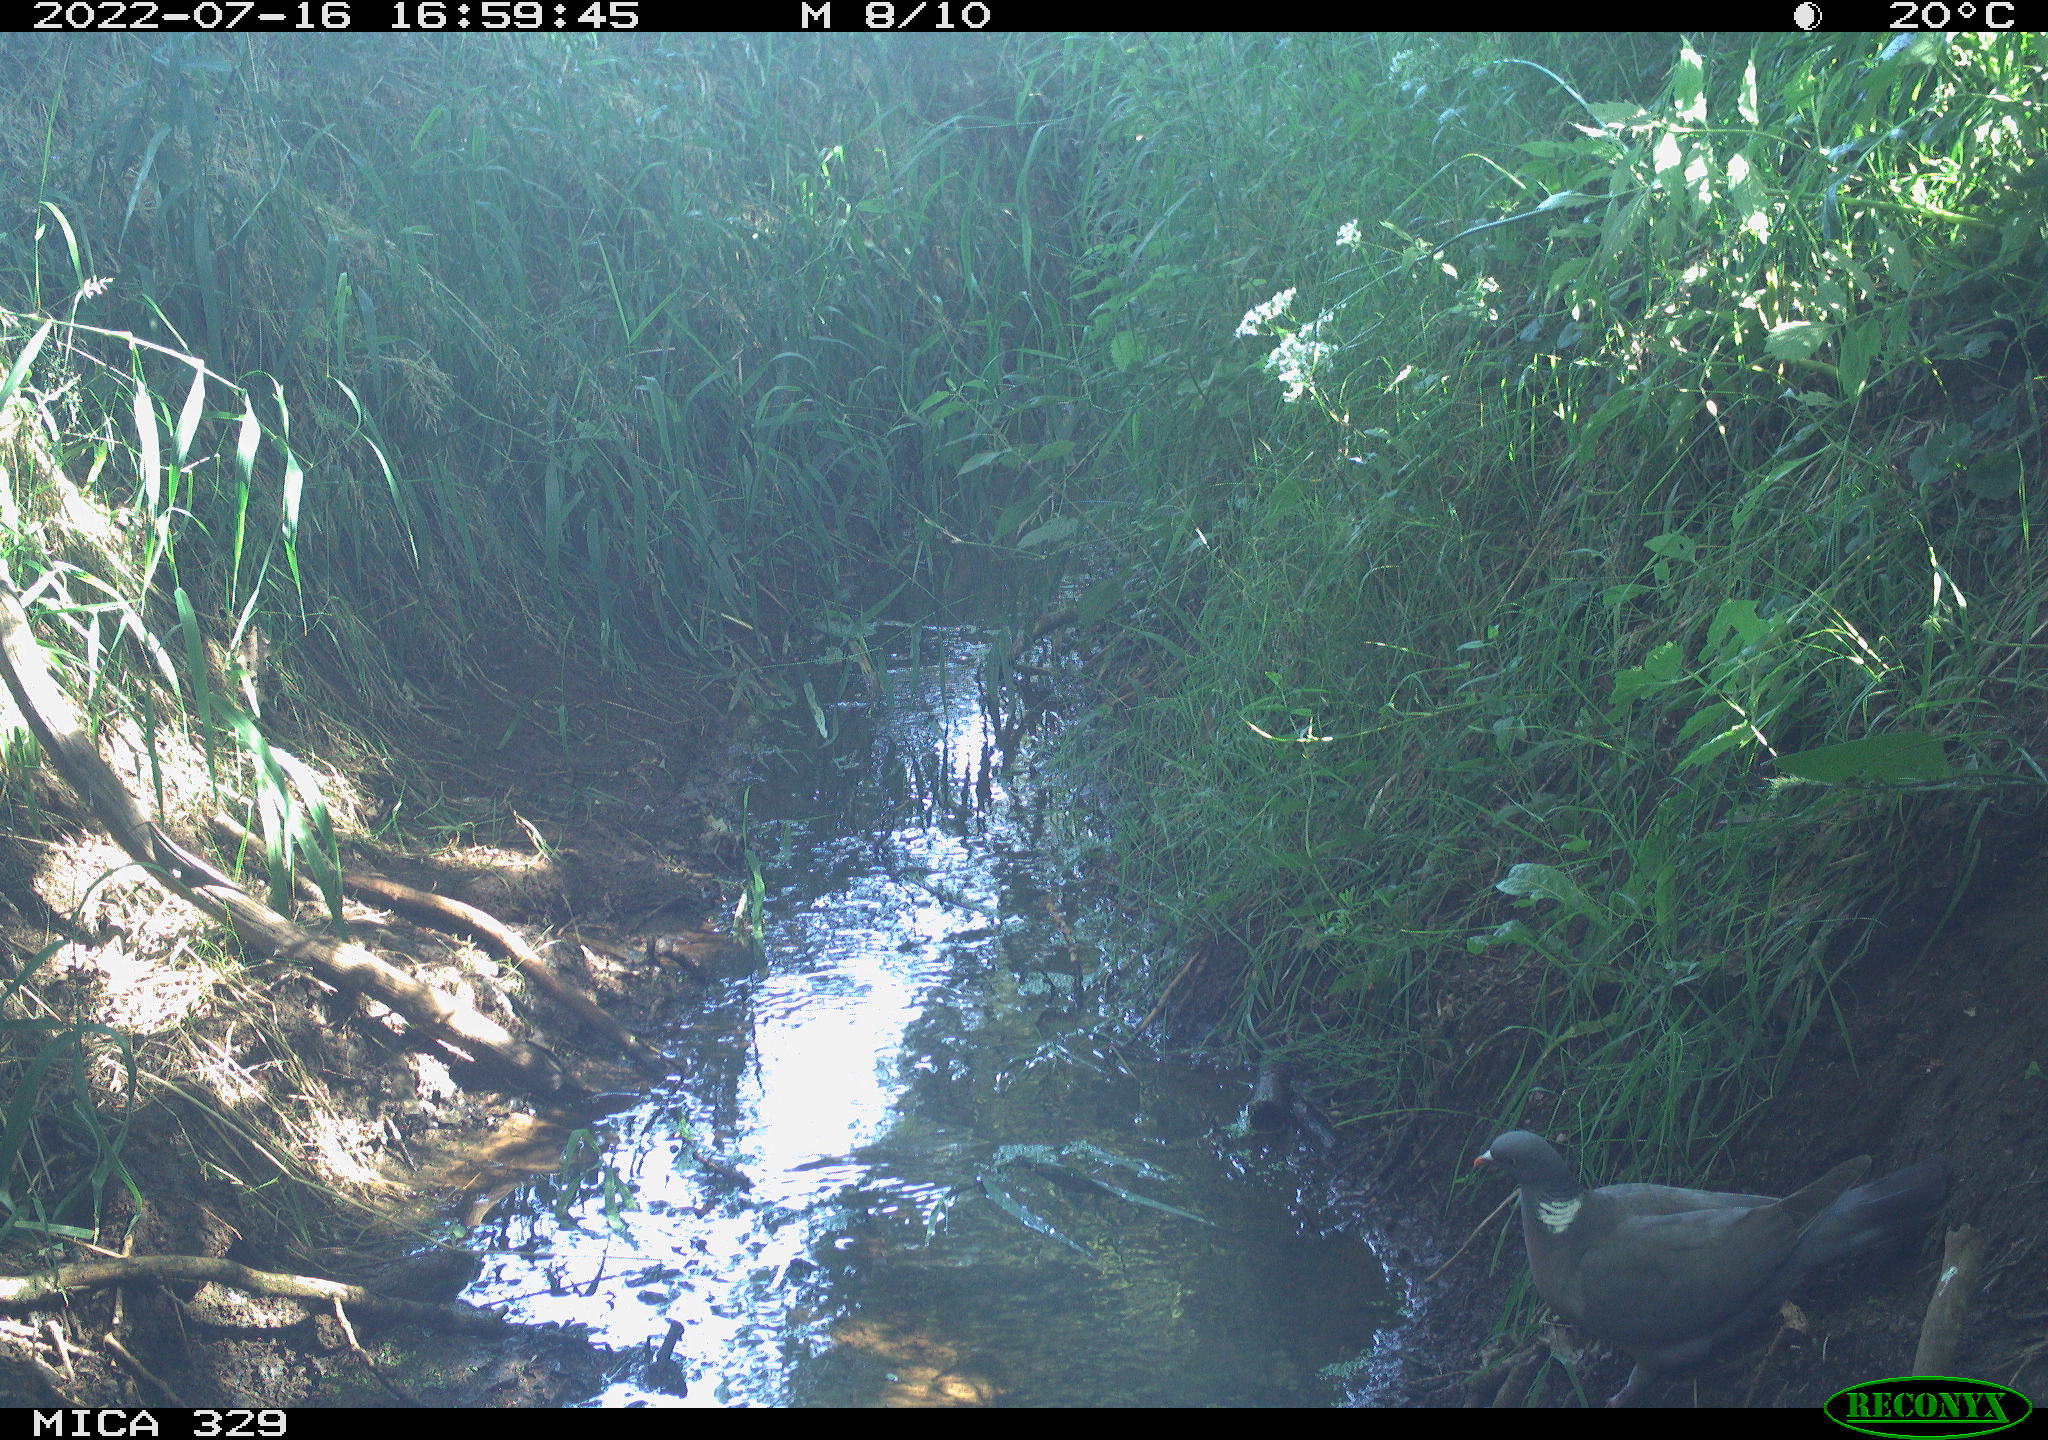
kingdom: Animalia
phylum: Chordata
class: Aves
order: Columbiformes
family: Columbidae
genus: Columba
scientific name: Columba palumbus
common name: Common wood pigeon
